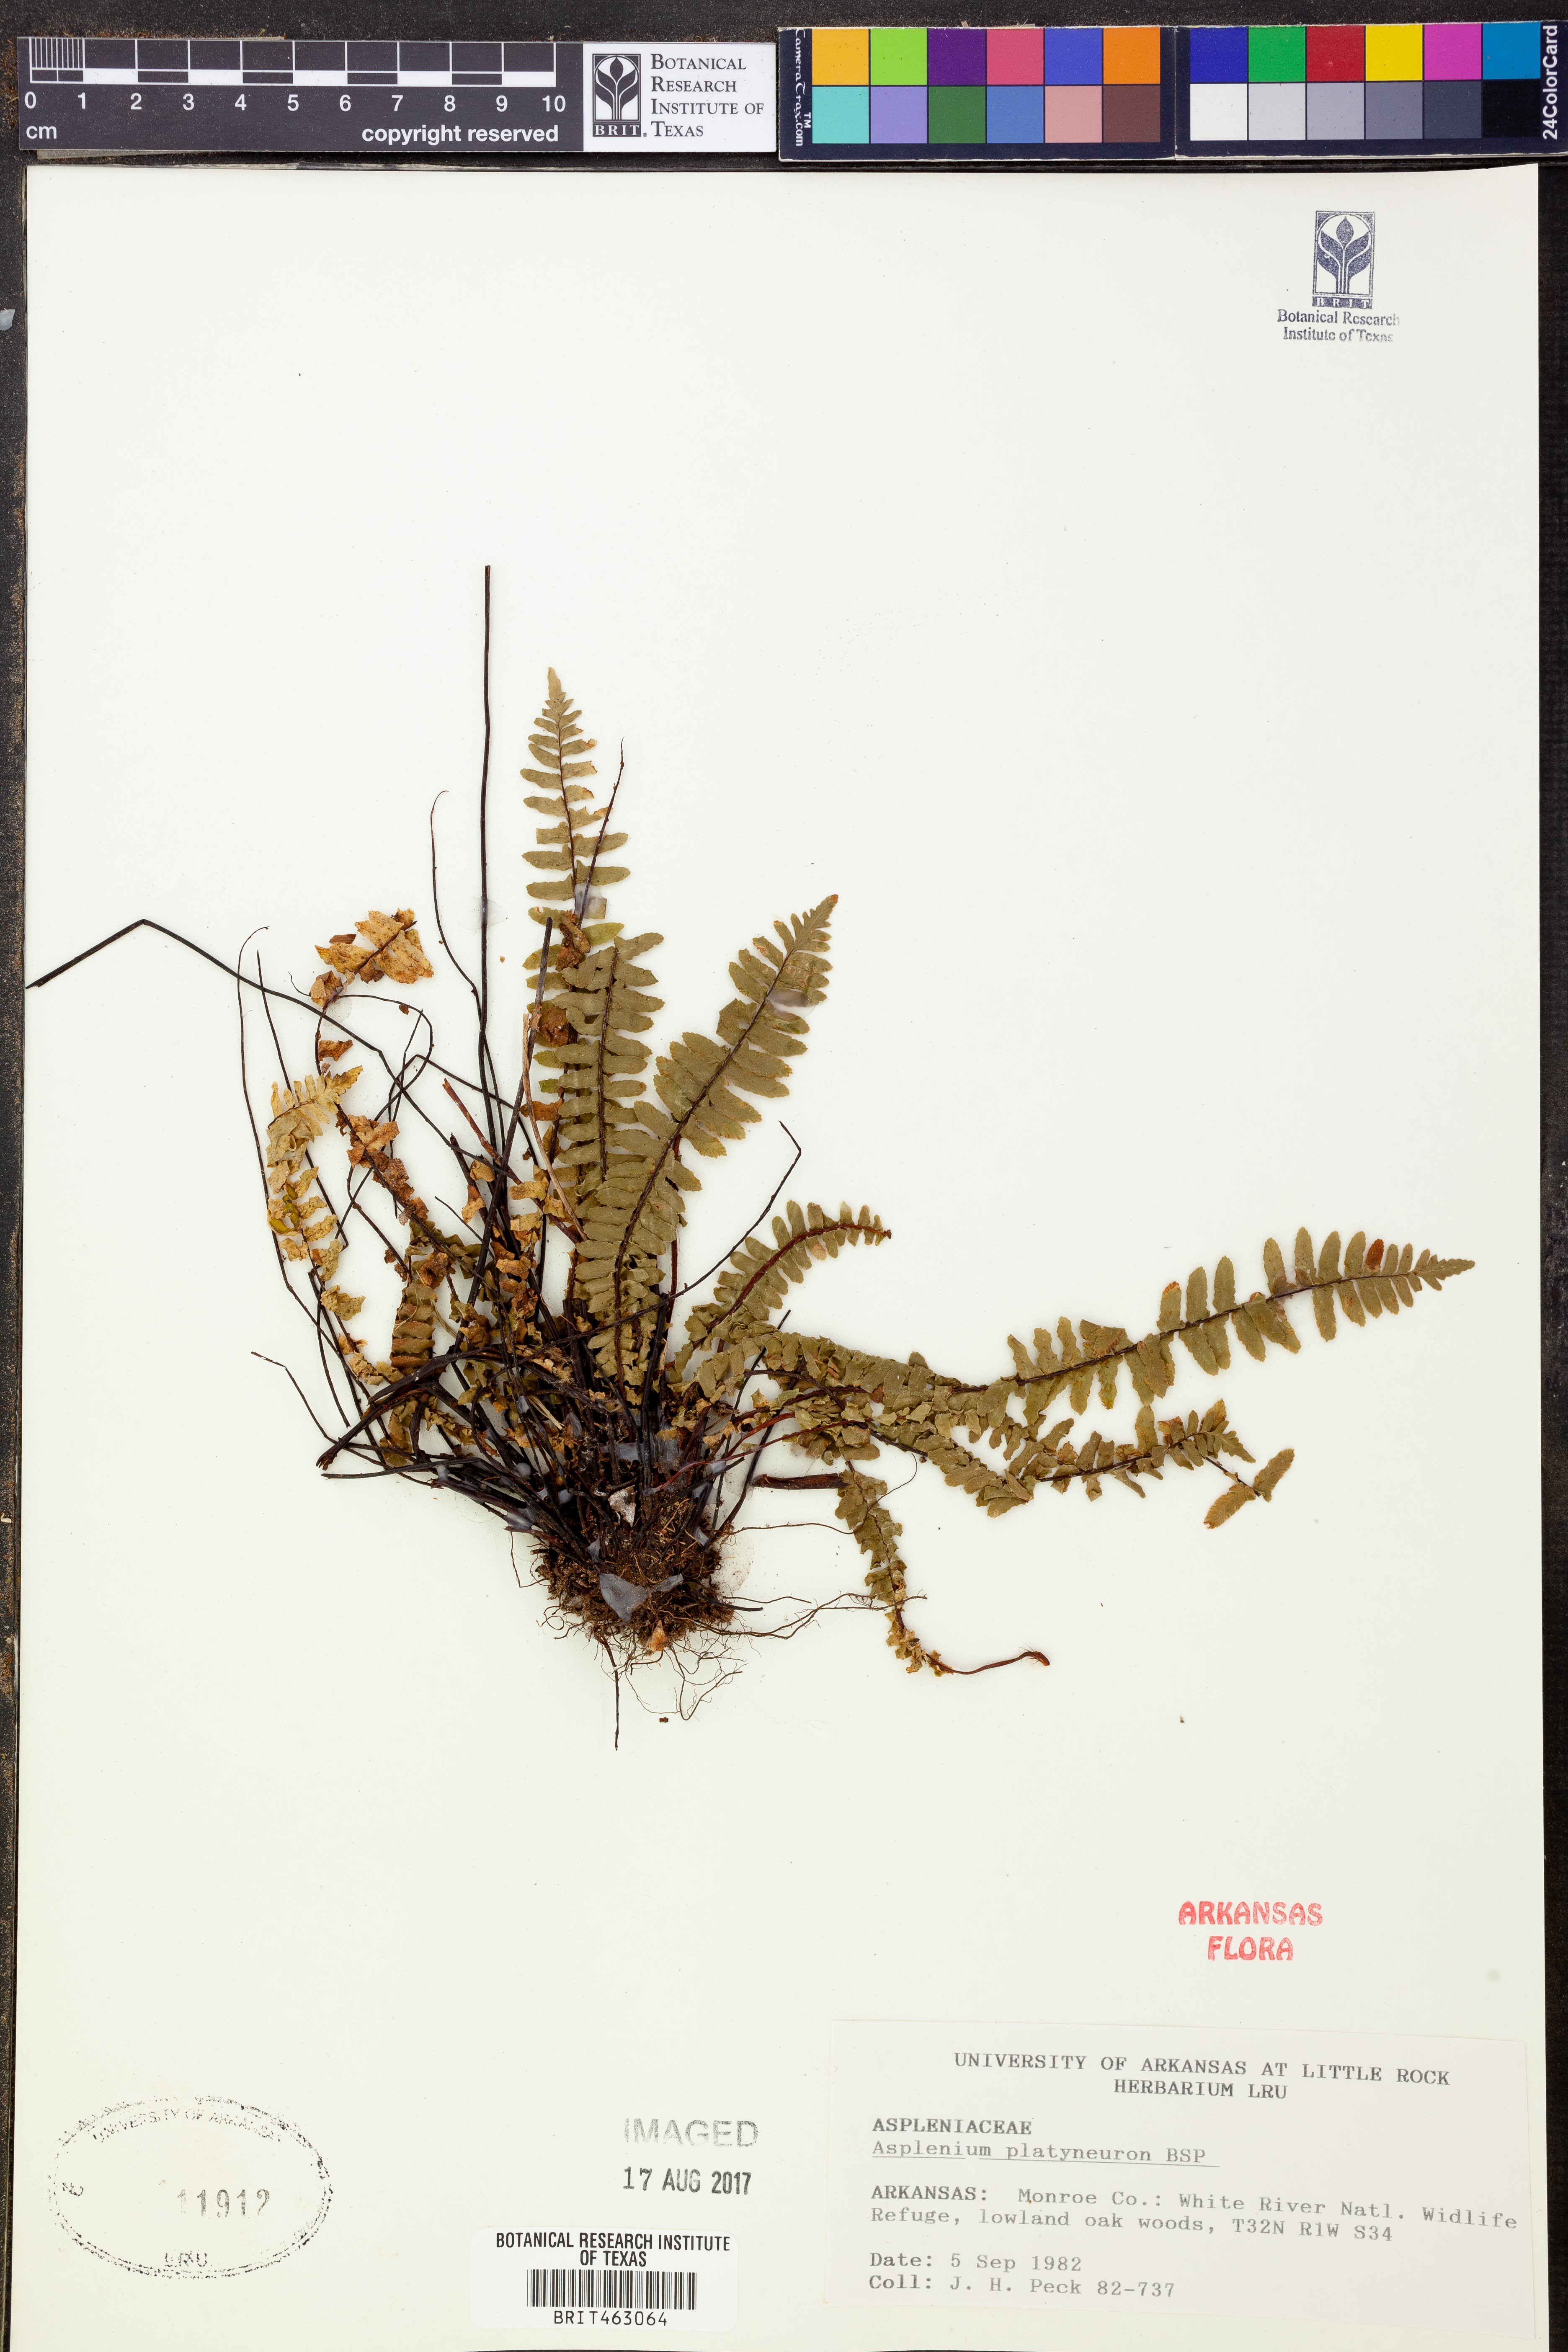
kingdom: Plantae
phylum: Tracheophyta
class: Polypodiopsida
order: Polypodiales
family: Aspleniaceae
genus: Asplenium
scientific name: Asplenium platyneuron
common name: Ebony spleenwort
